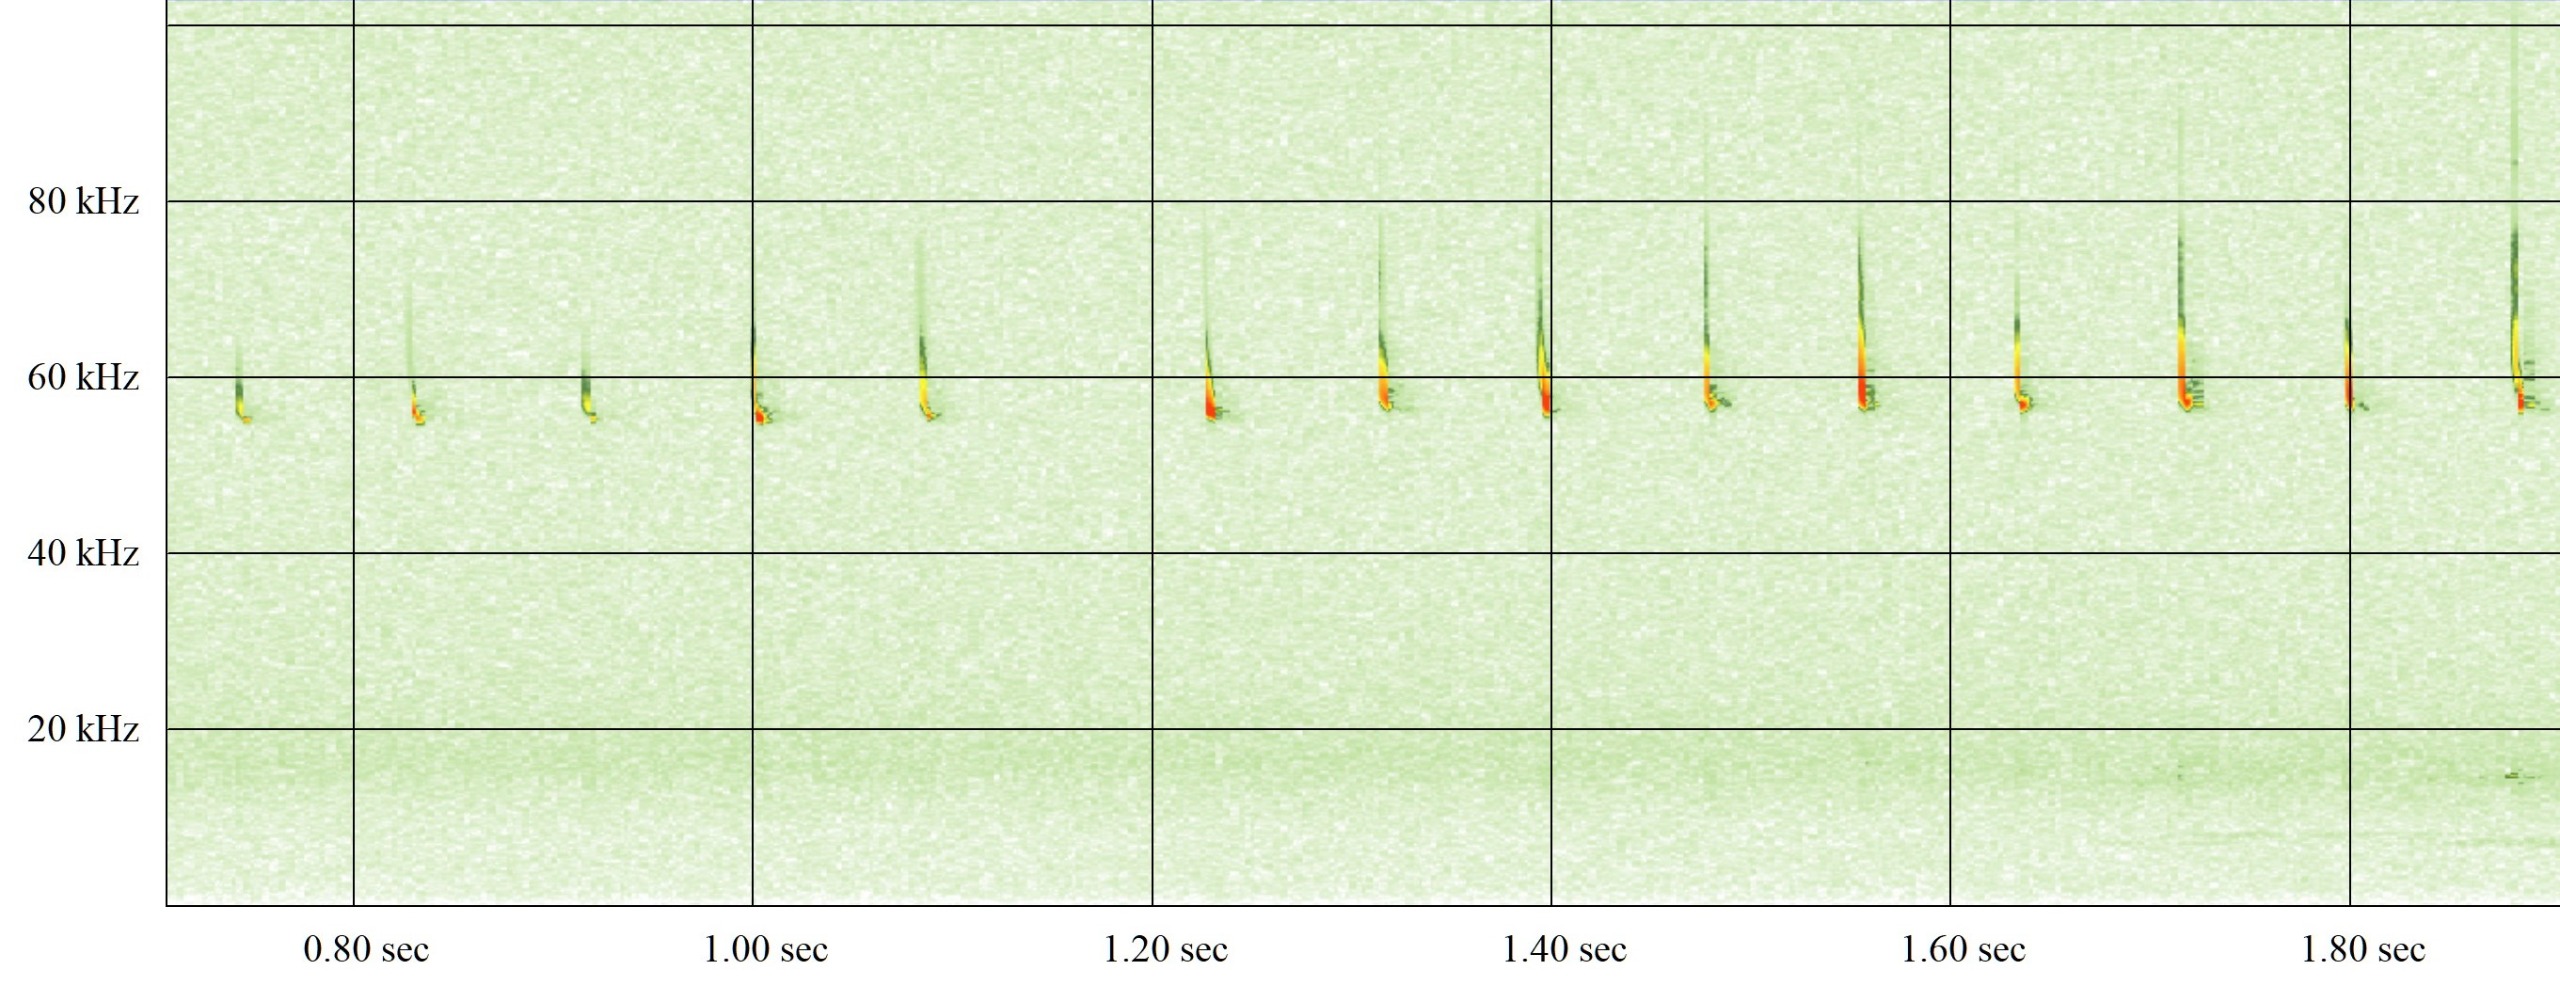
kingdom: Animalia
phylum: Chordata
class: Mammalia
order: Chiroptera
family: Vespertilionidae
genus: Pipistrellus
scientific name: Pipistrellus pygmaeus
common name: Dværgflagermus
